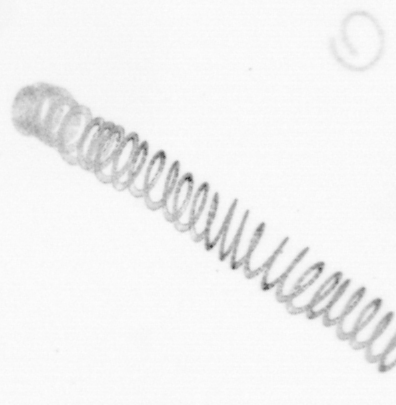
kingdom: Chromista
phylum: Ochrophyta
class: Bacillariophyceae
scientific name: Bacillariophyceae
